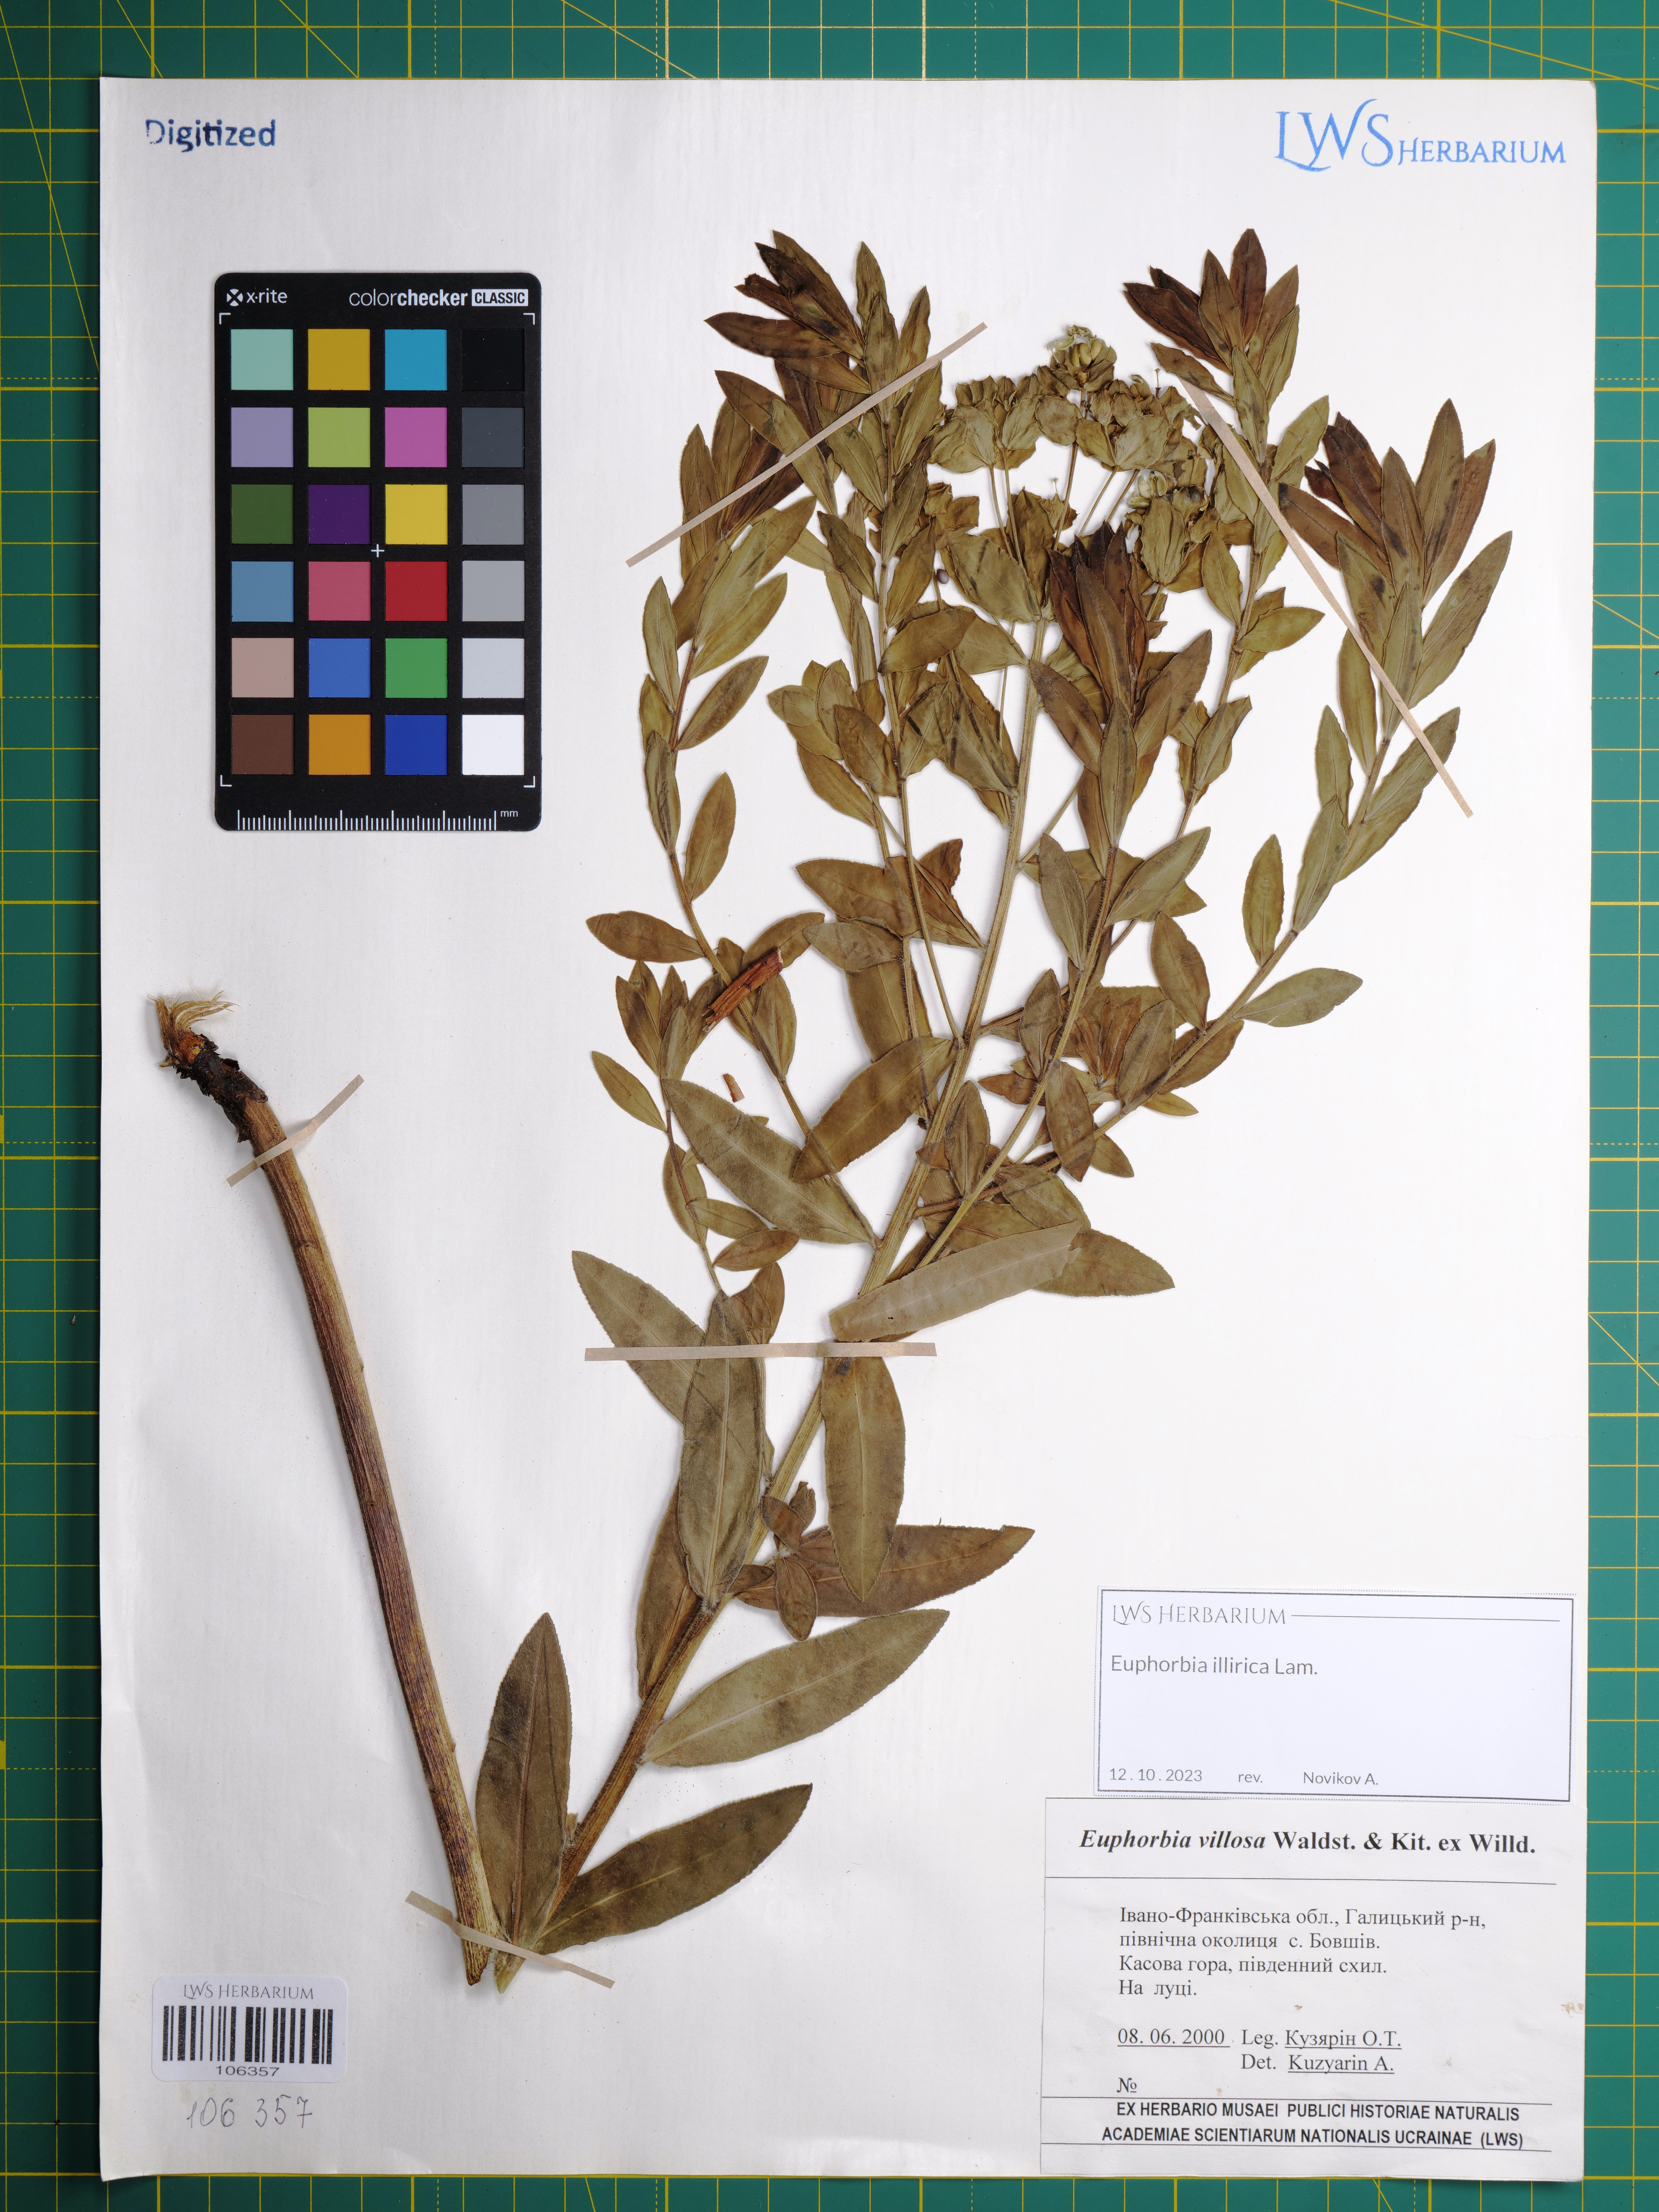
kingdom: Plantae
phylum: Tracheophyta
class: Magnoliopsida
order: Malpighiales
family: Euphorbiaceae
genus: Euphorbia
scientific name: Euphorbia illirica
